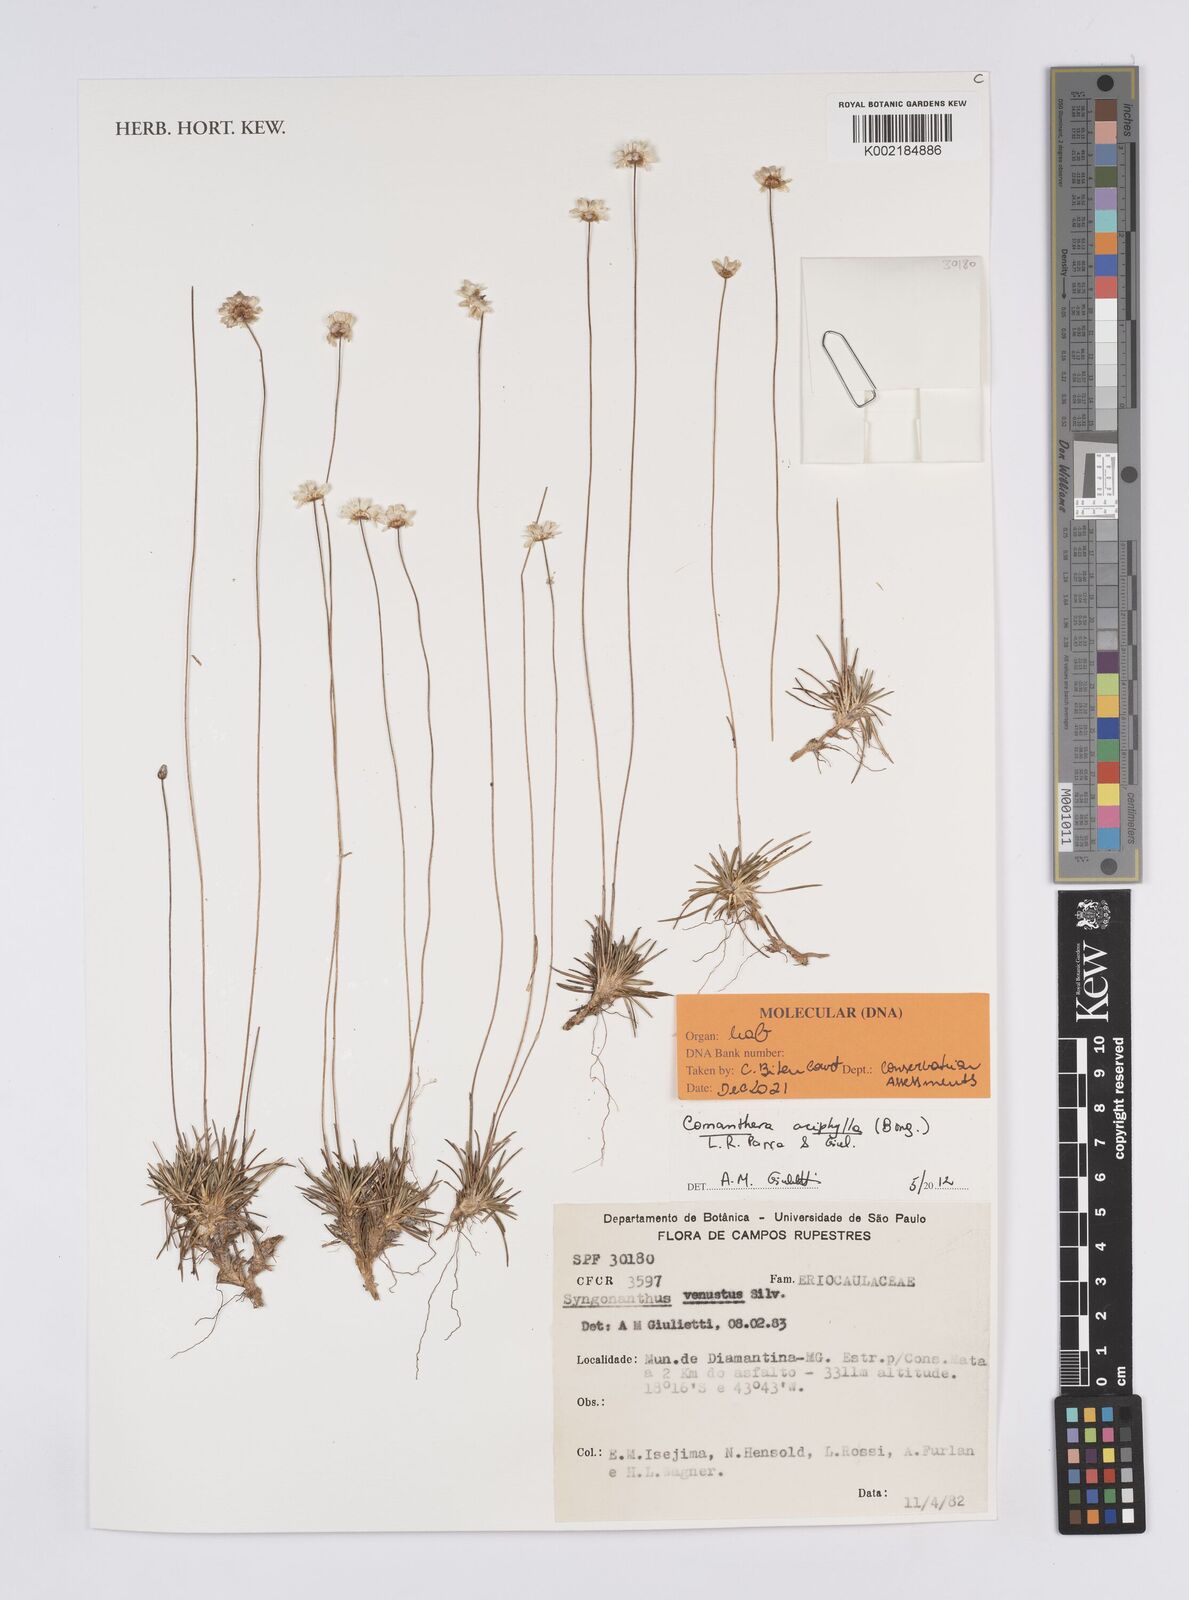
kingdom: Plantae
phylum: Tracheophyta
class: Liliopsida
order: Poales
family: Eriocaulaceae
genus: Comanthera
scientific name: Comanthera aciphylla
